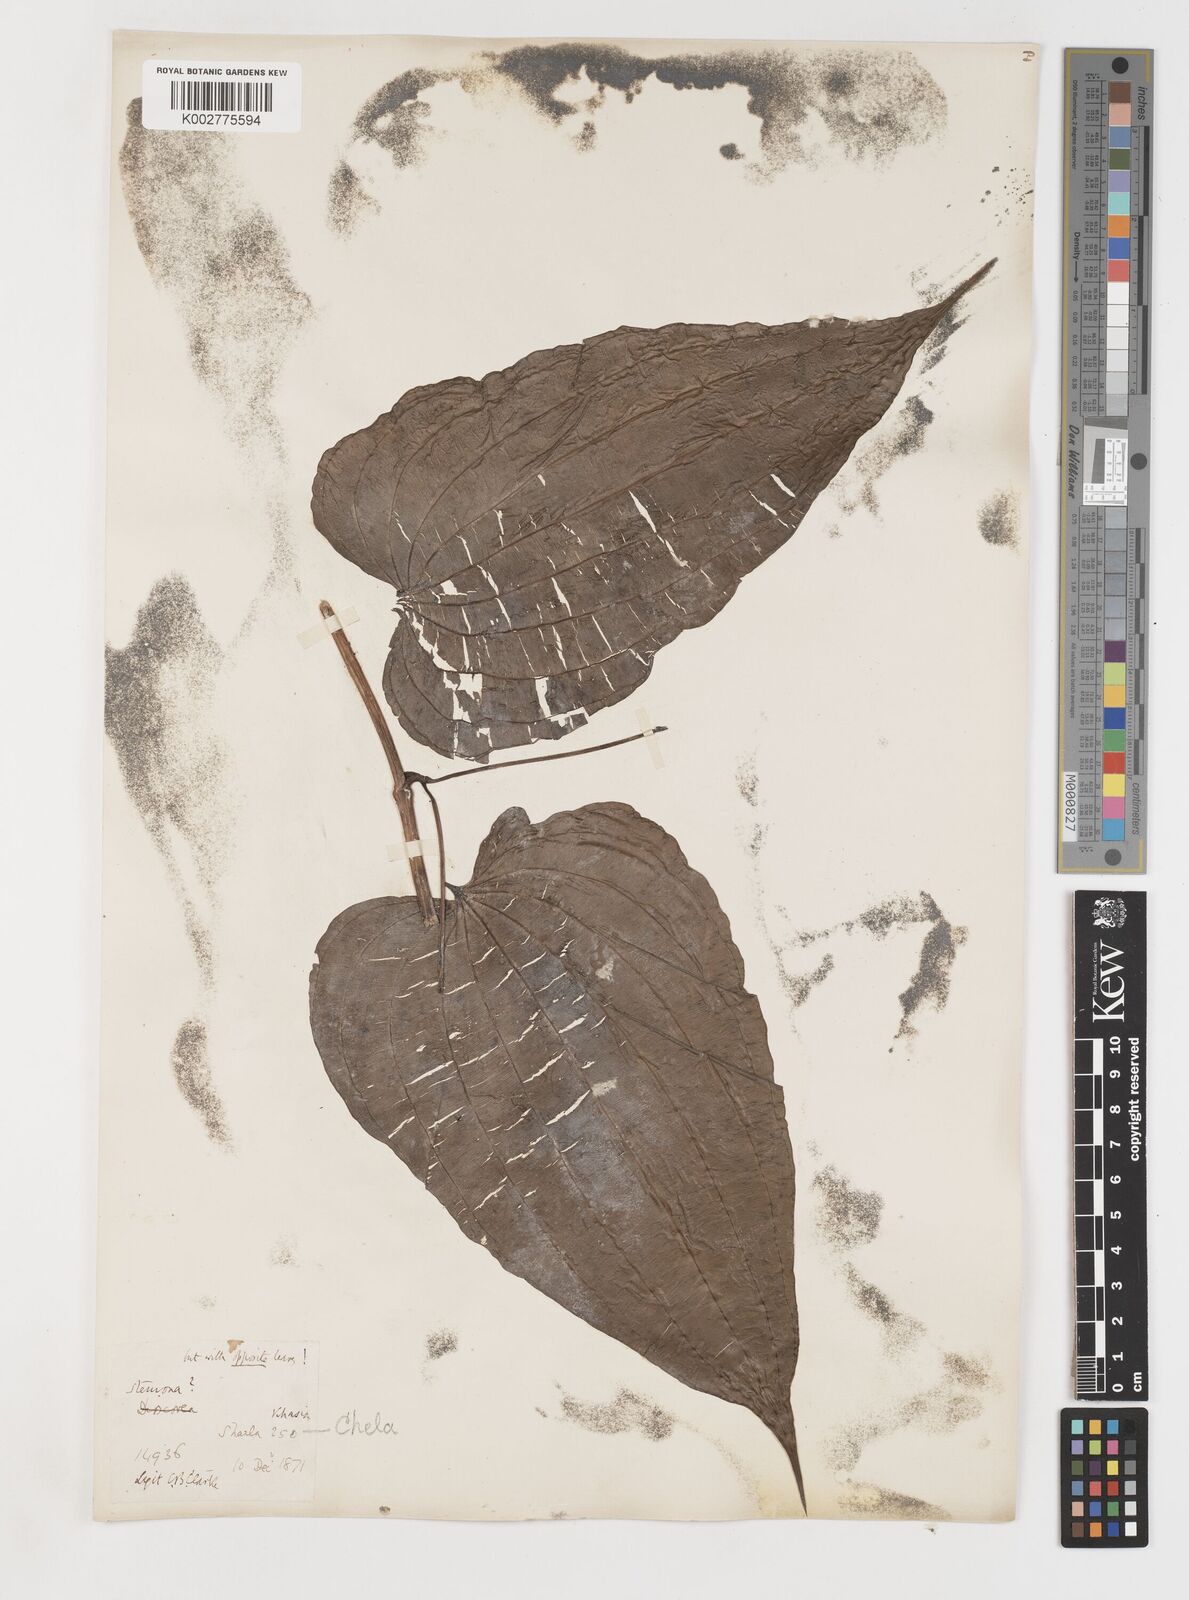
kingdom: Plantae
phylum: Tracheophyta
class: Liliopsida
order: Pandanales
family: Stemonaceae
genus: Stemona
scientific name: Stemona tuberosa
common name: Stemona
